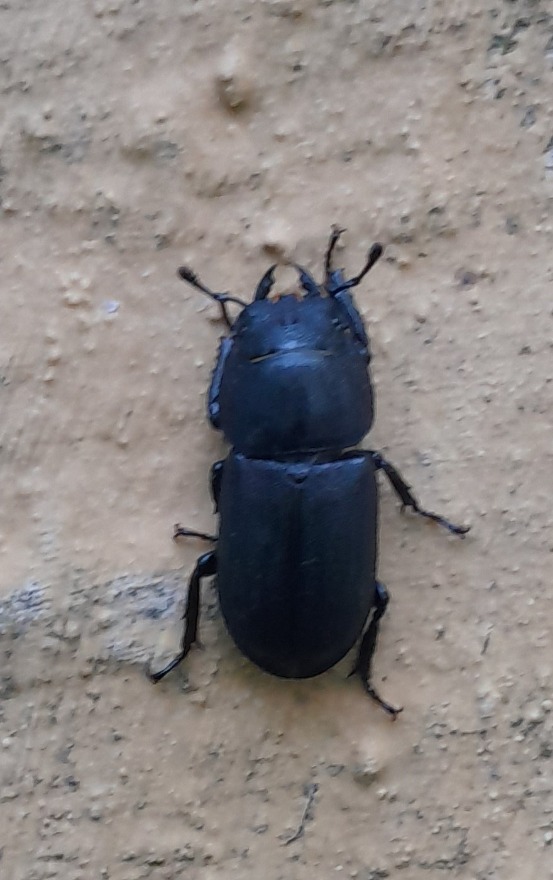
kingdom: Animalia
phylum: Arthropoda
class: Insecta
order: Coleoptera
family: Lucanidae
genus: Dorcus
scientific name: Dorcus parallelipipedus
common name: Bøghjort
